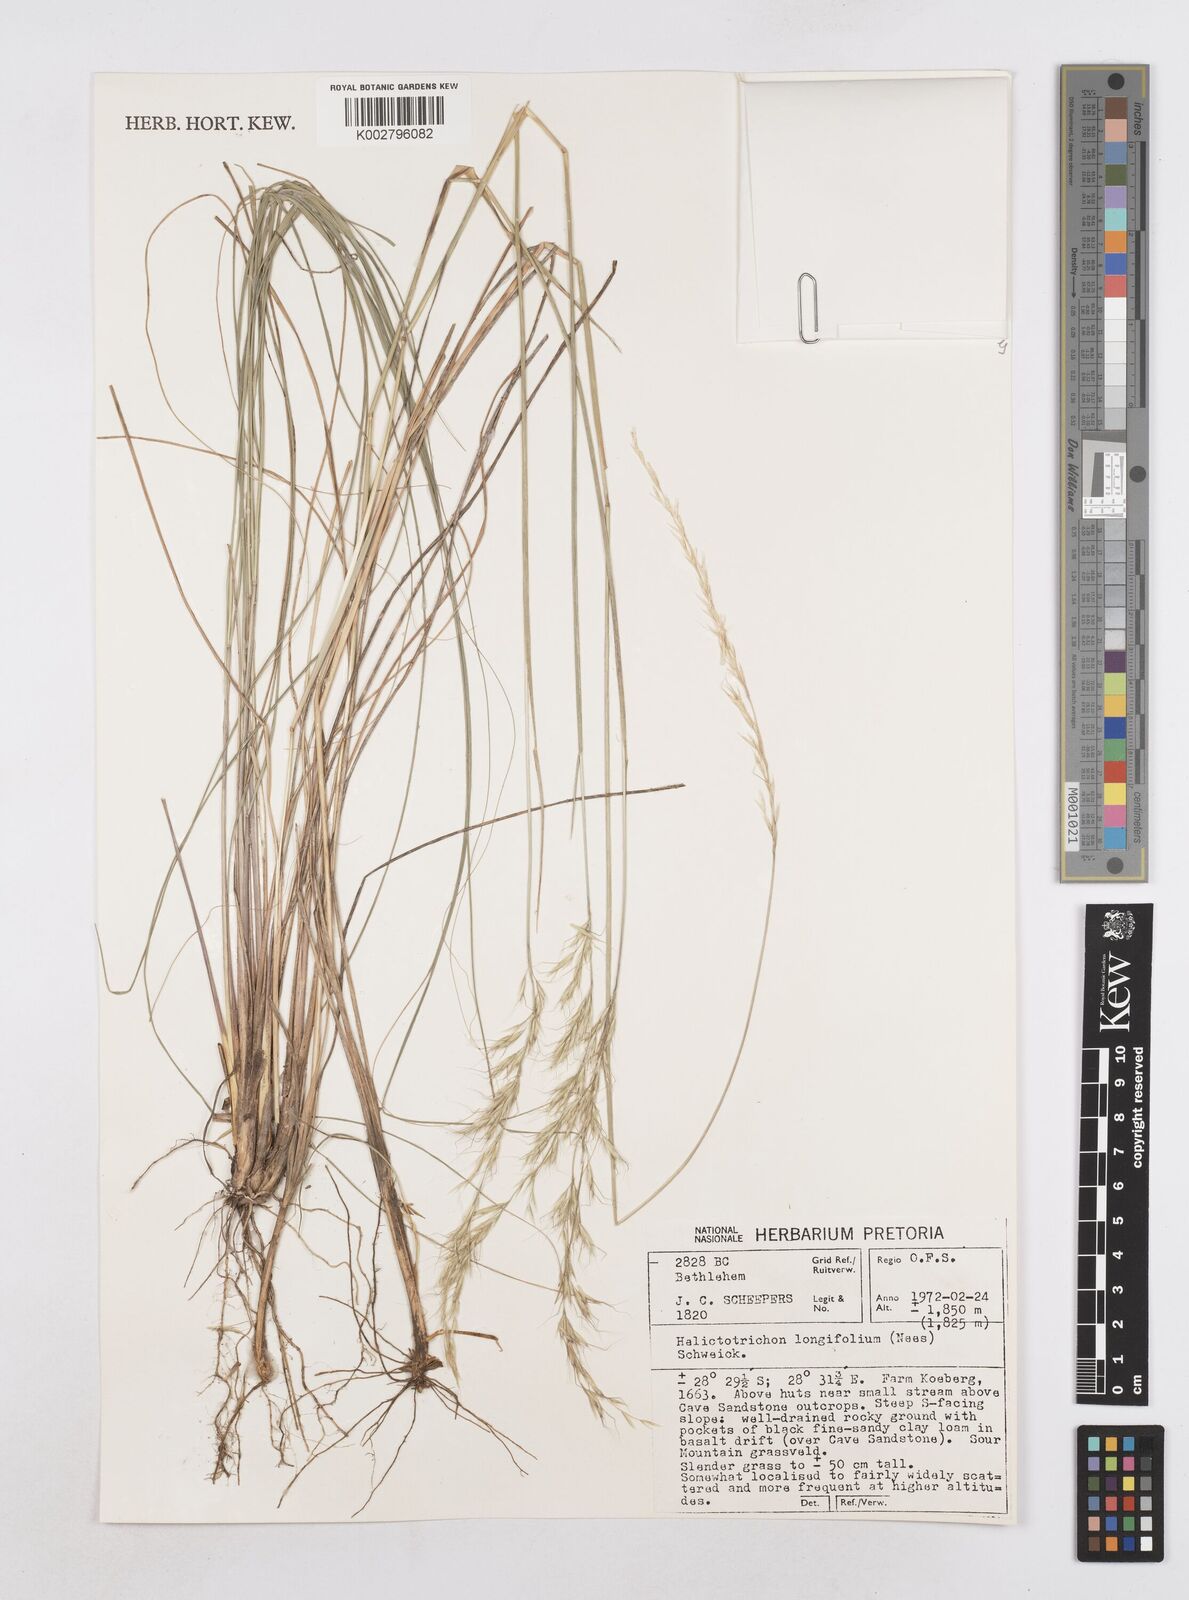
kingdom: Plantae
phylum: Tracheophyta
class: Liliopsida
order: Poales
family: Poaceae
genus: Trisetopsis
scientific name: Trisetopsis longifolia
